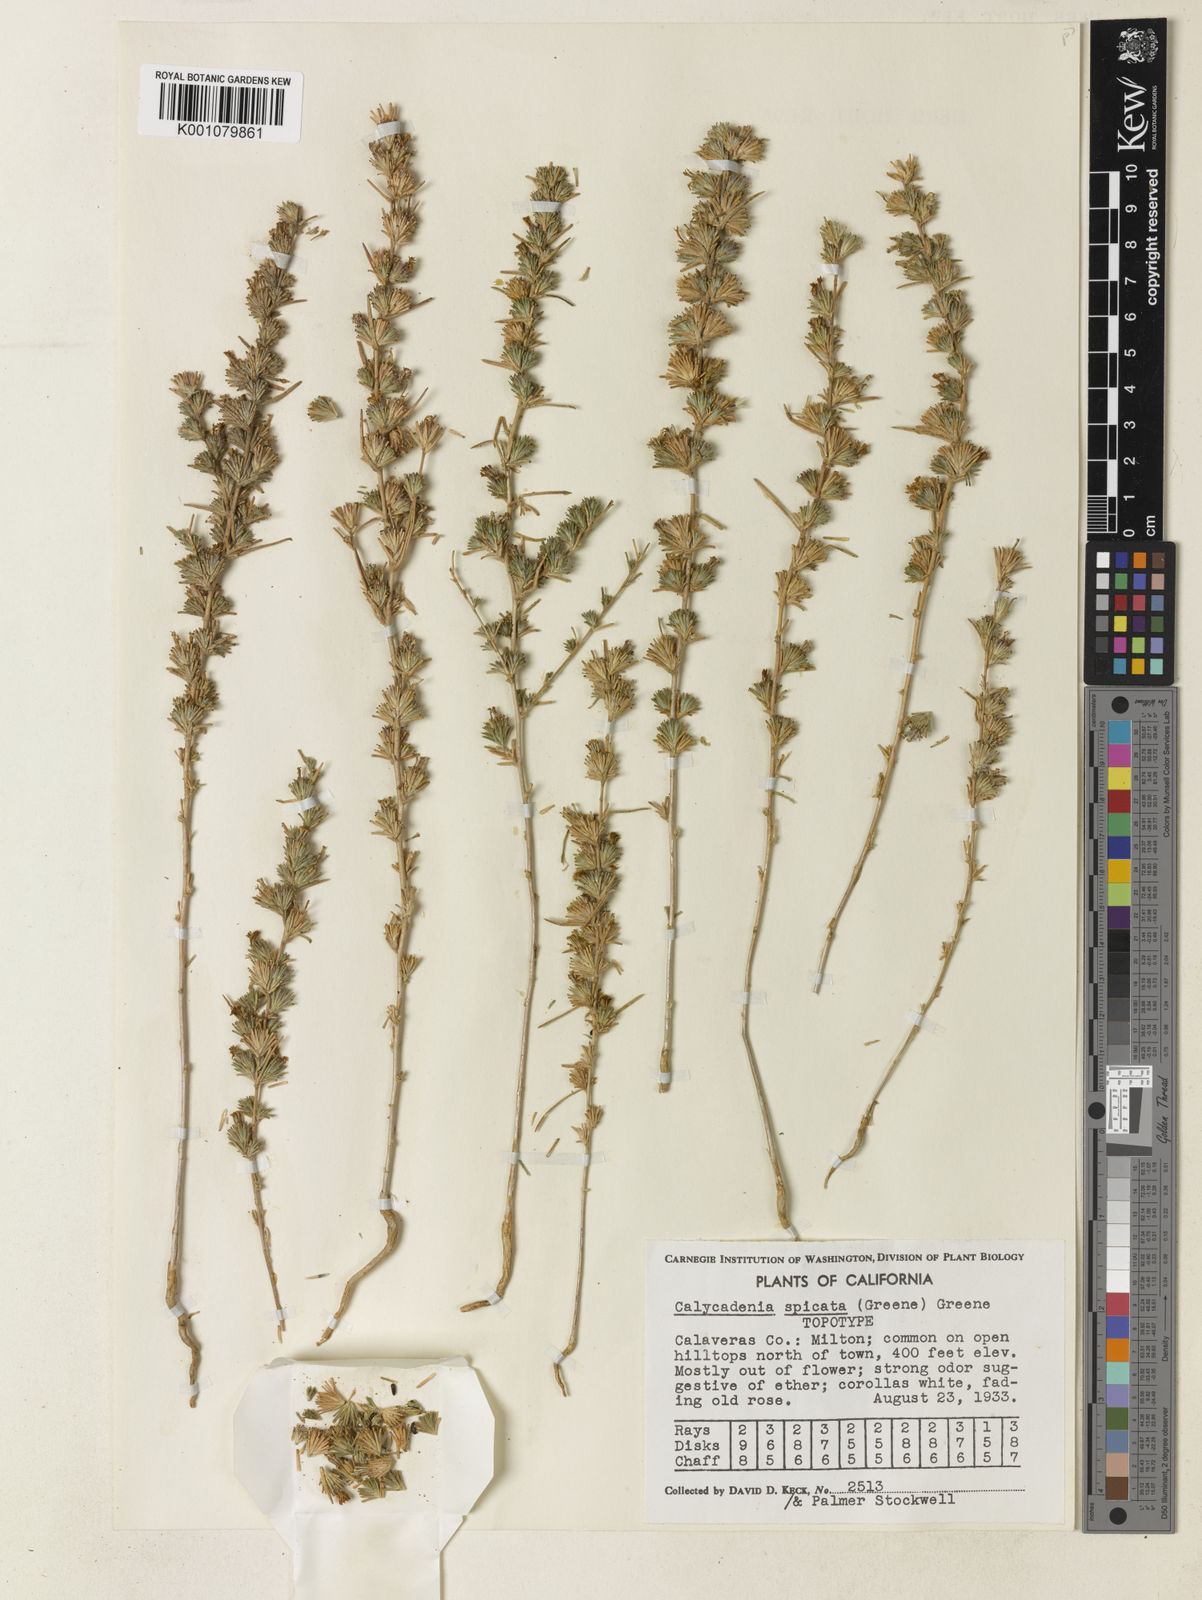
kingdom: Plantae
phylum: Tracheophyta
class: Magnoliopsida
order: Asterales
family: Asteraceae
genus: Calycadenia
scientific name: Calycadenia villosa
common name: Dwarf calycadenia
